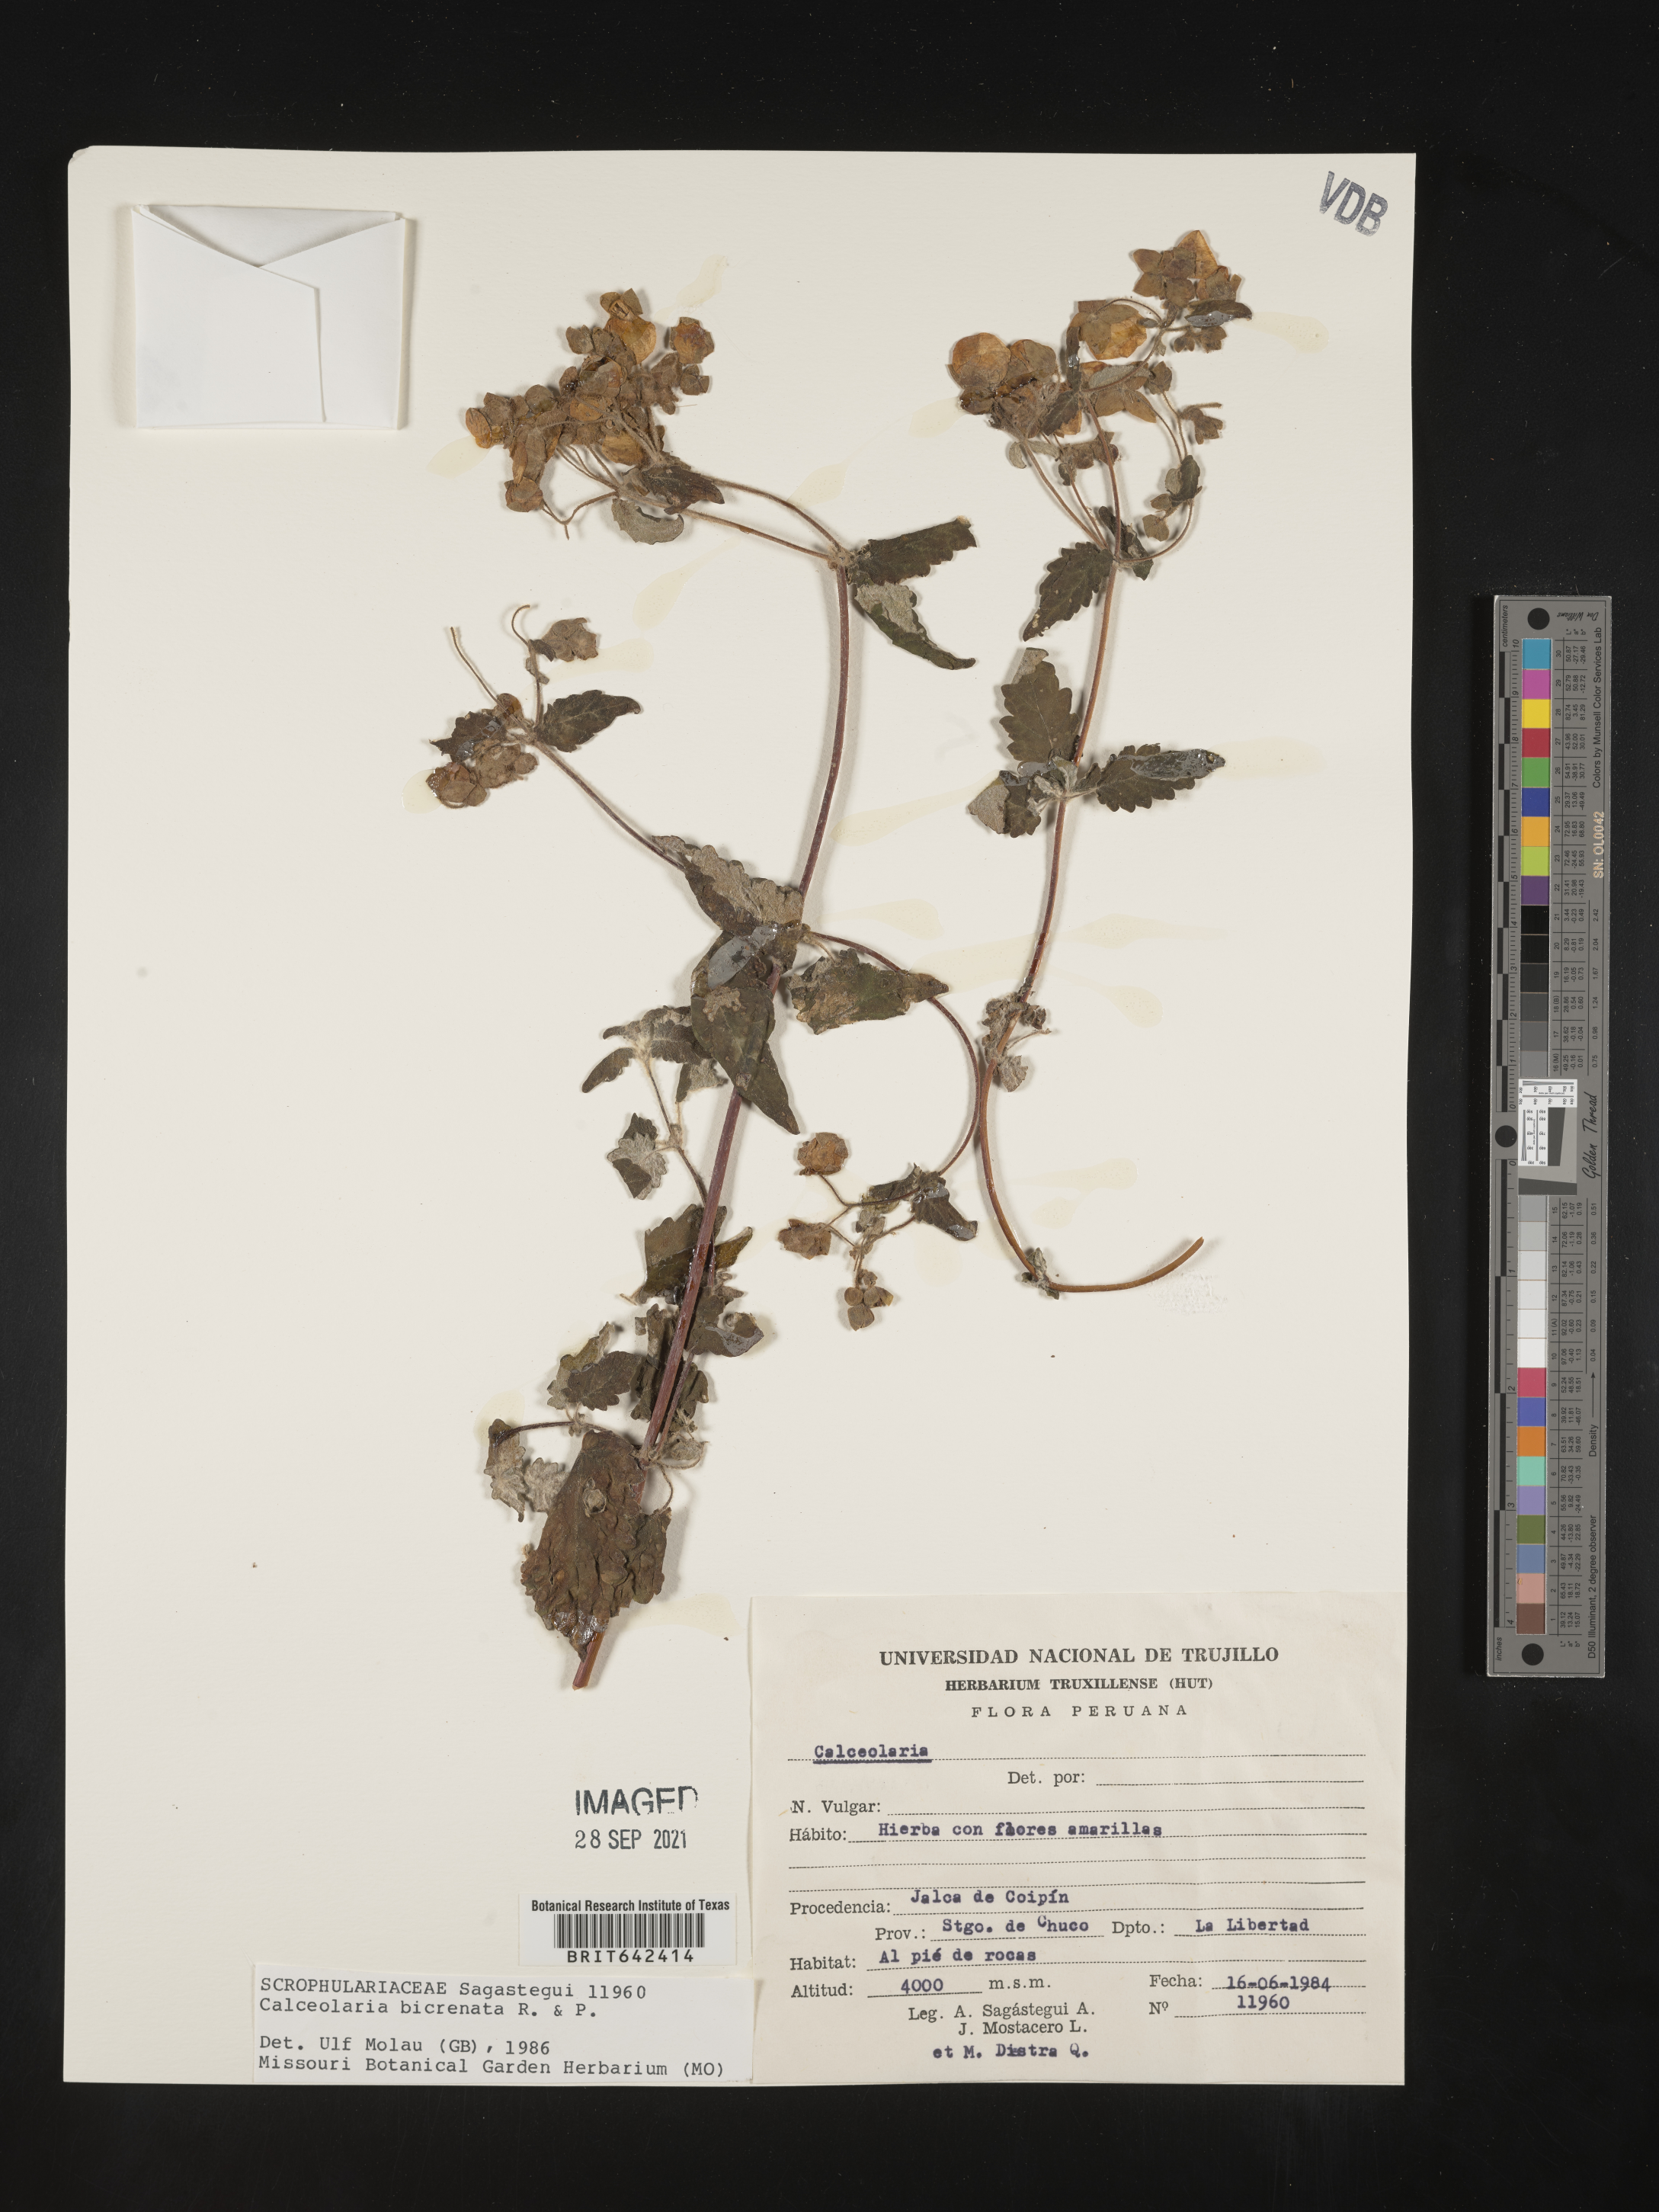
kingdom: Plantae
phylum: Tracheophyta
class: Magnoliopsida
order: Lamiales
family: Calceolariaceae
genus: Calceolaria
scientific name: Calceolaria bicrenata
